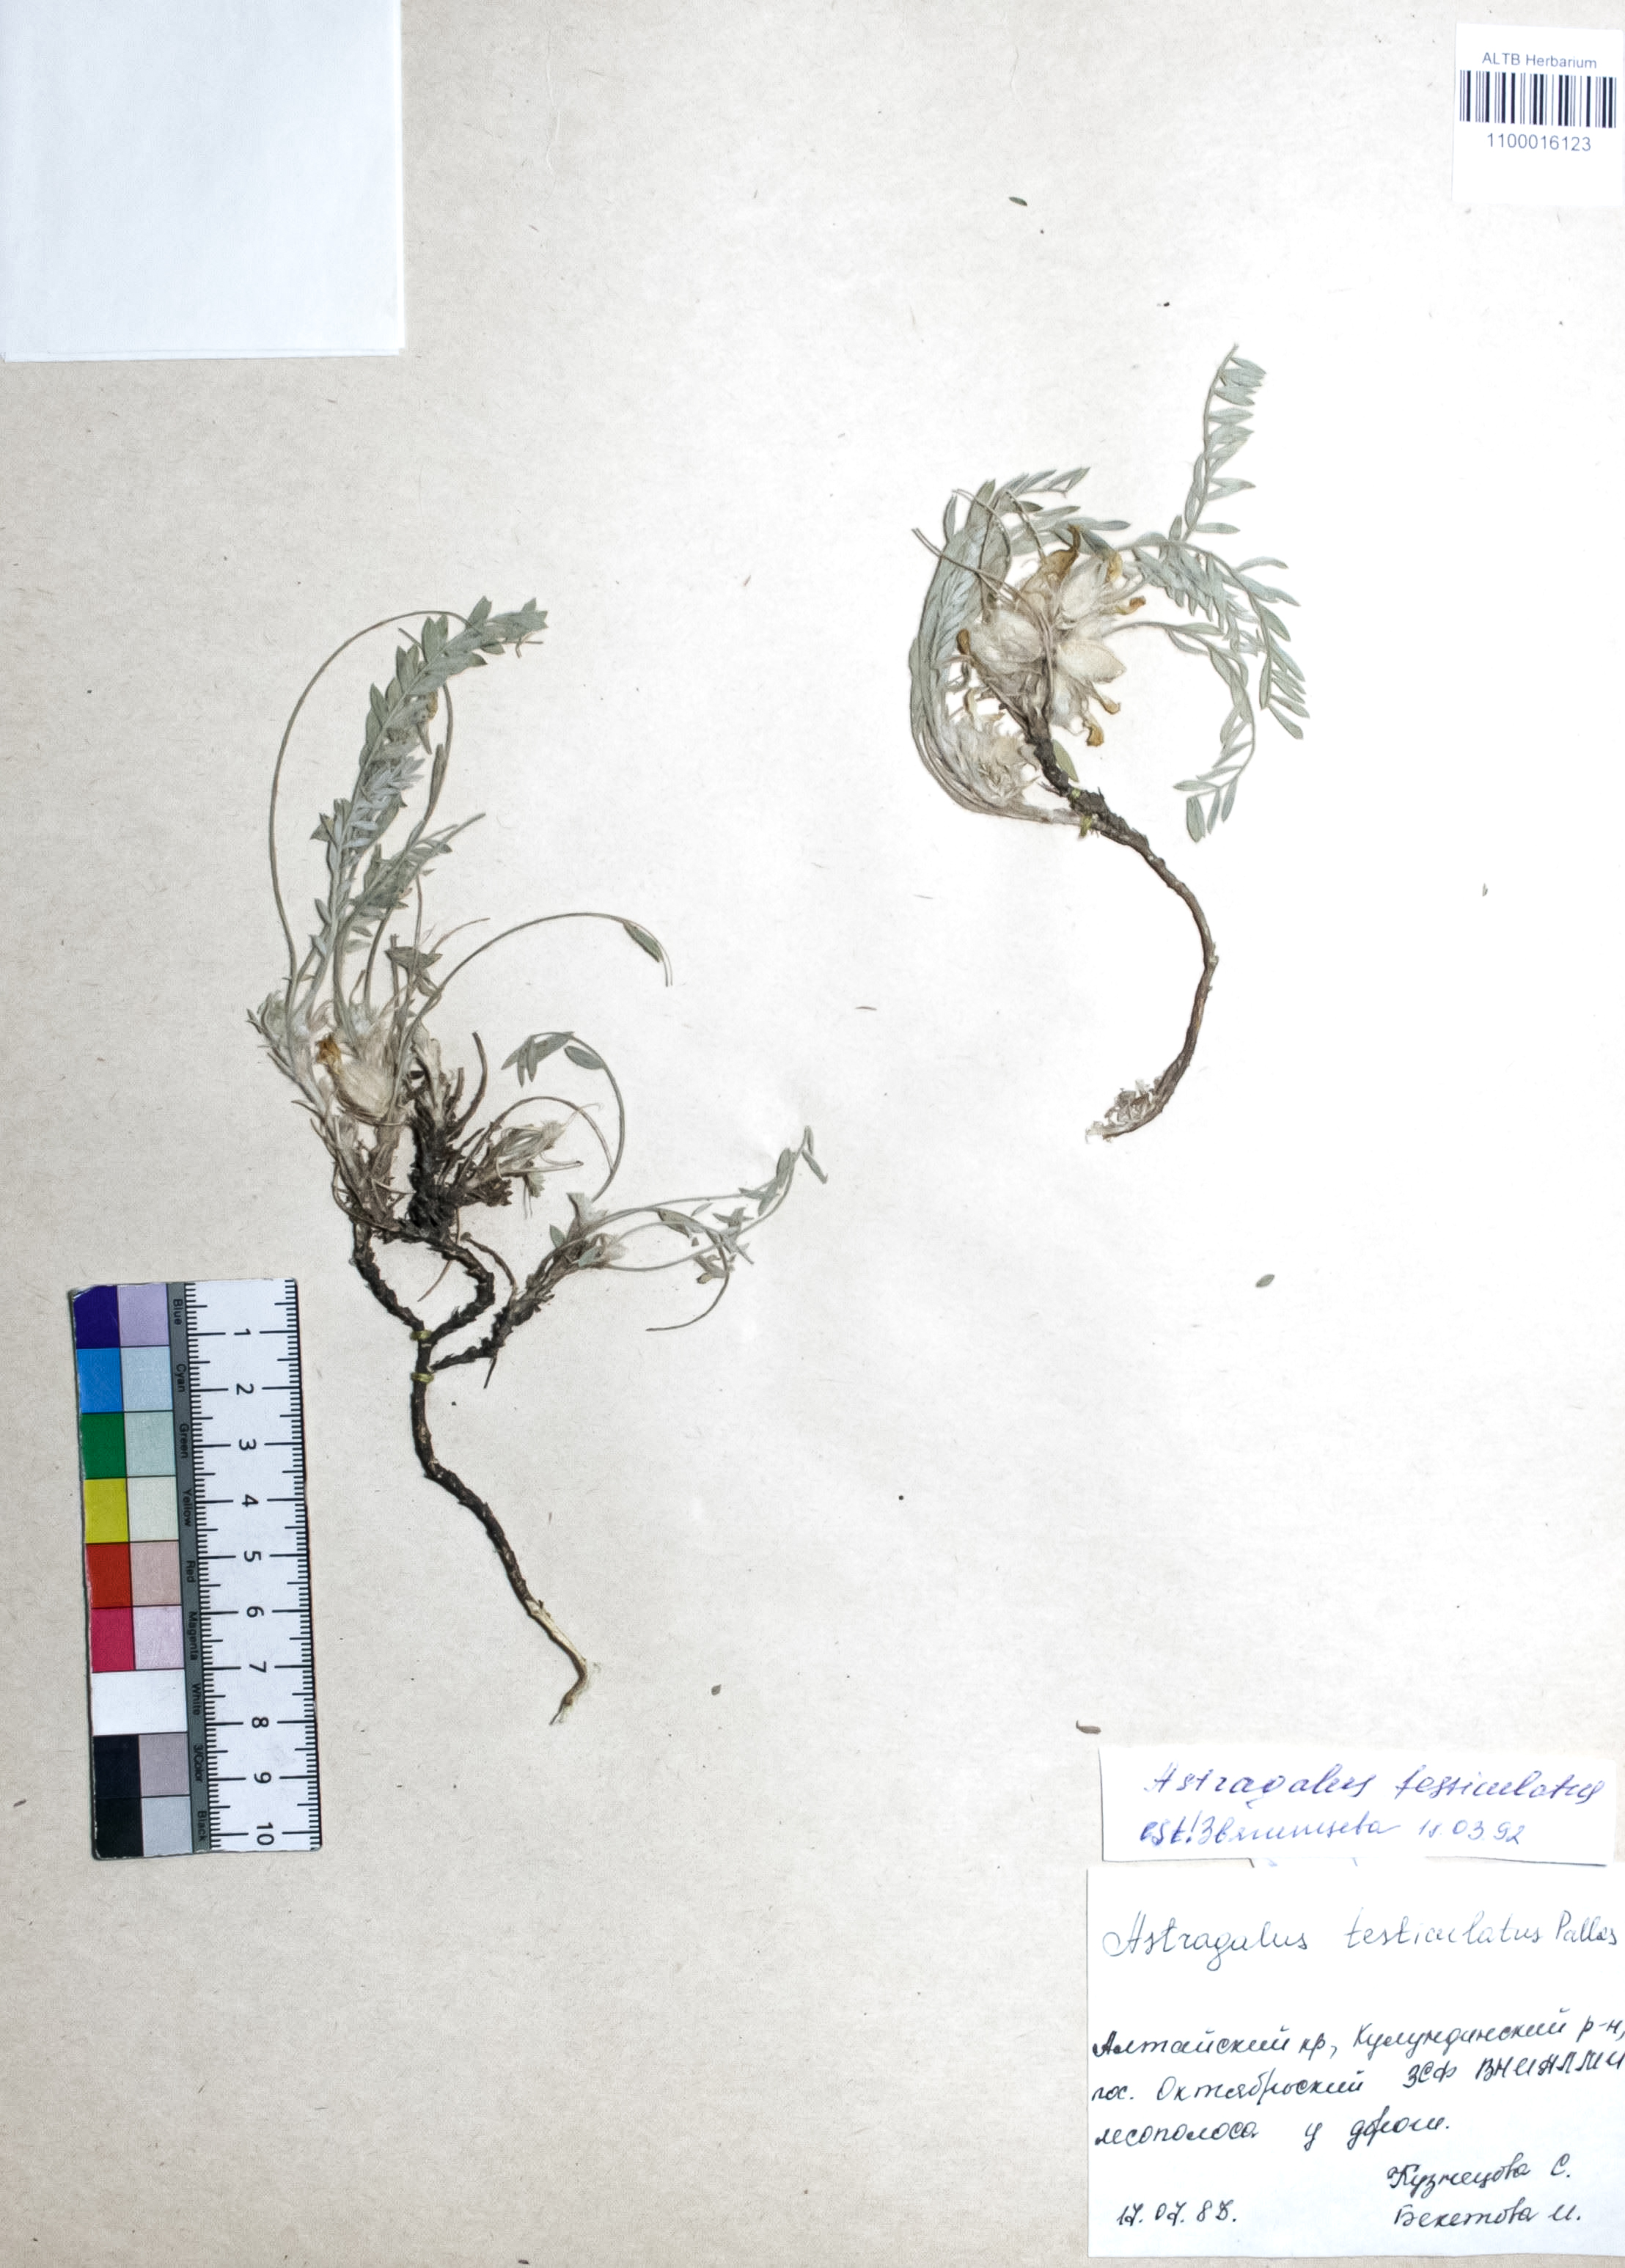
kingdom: Plantae
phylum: Tracheophyta
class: Magnoliopsida
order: Fabales
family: Fabaceae
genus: Astragalus
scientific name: Astragalus testiculatus
